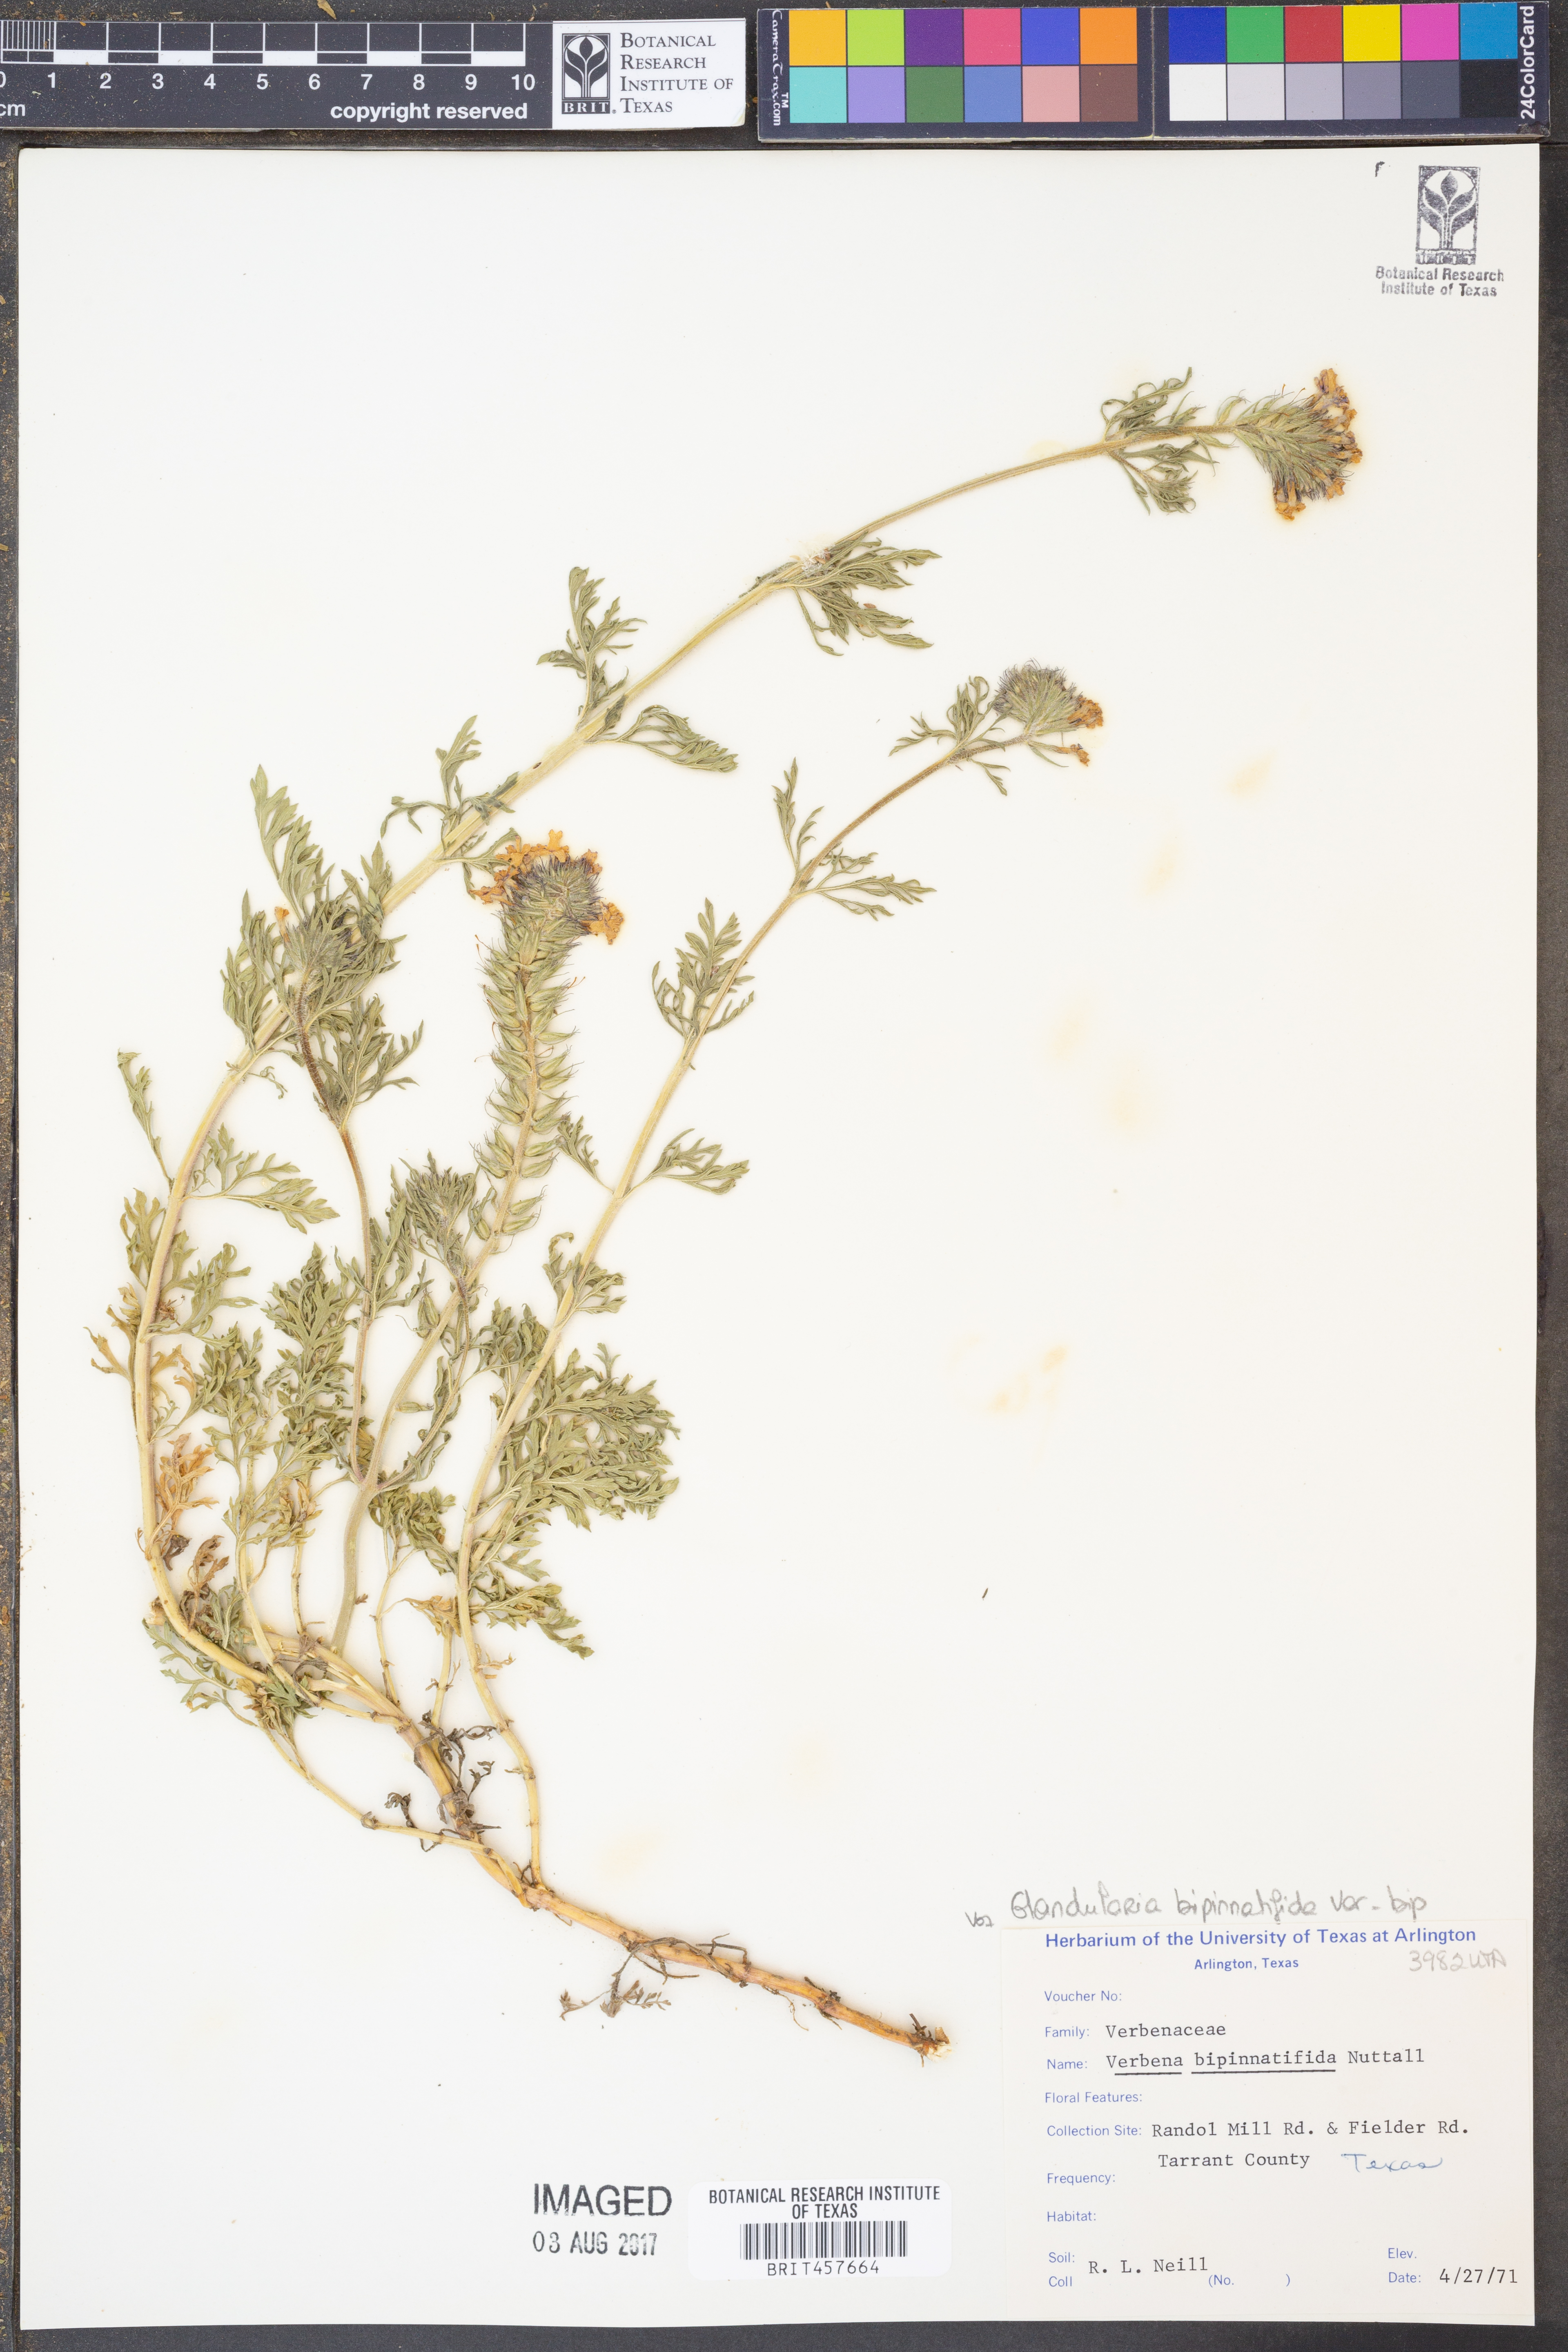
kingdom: Plantae
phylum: Tracheophyta
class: Magnoliopsida
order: Lamiales
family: Verbenaceae
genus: Verbena
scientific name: Verbena bipinnatifida
